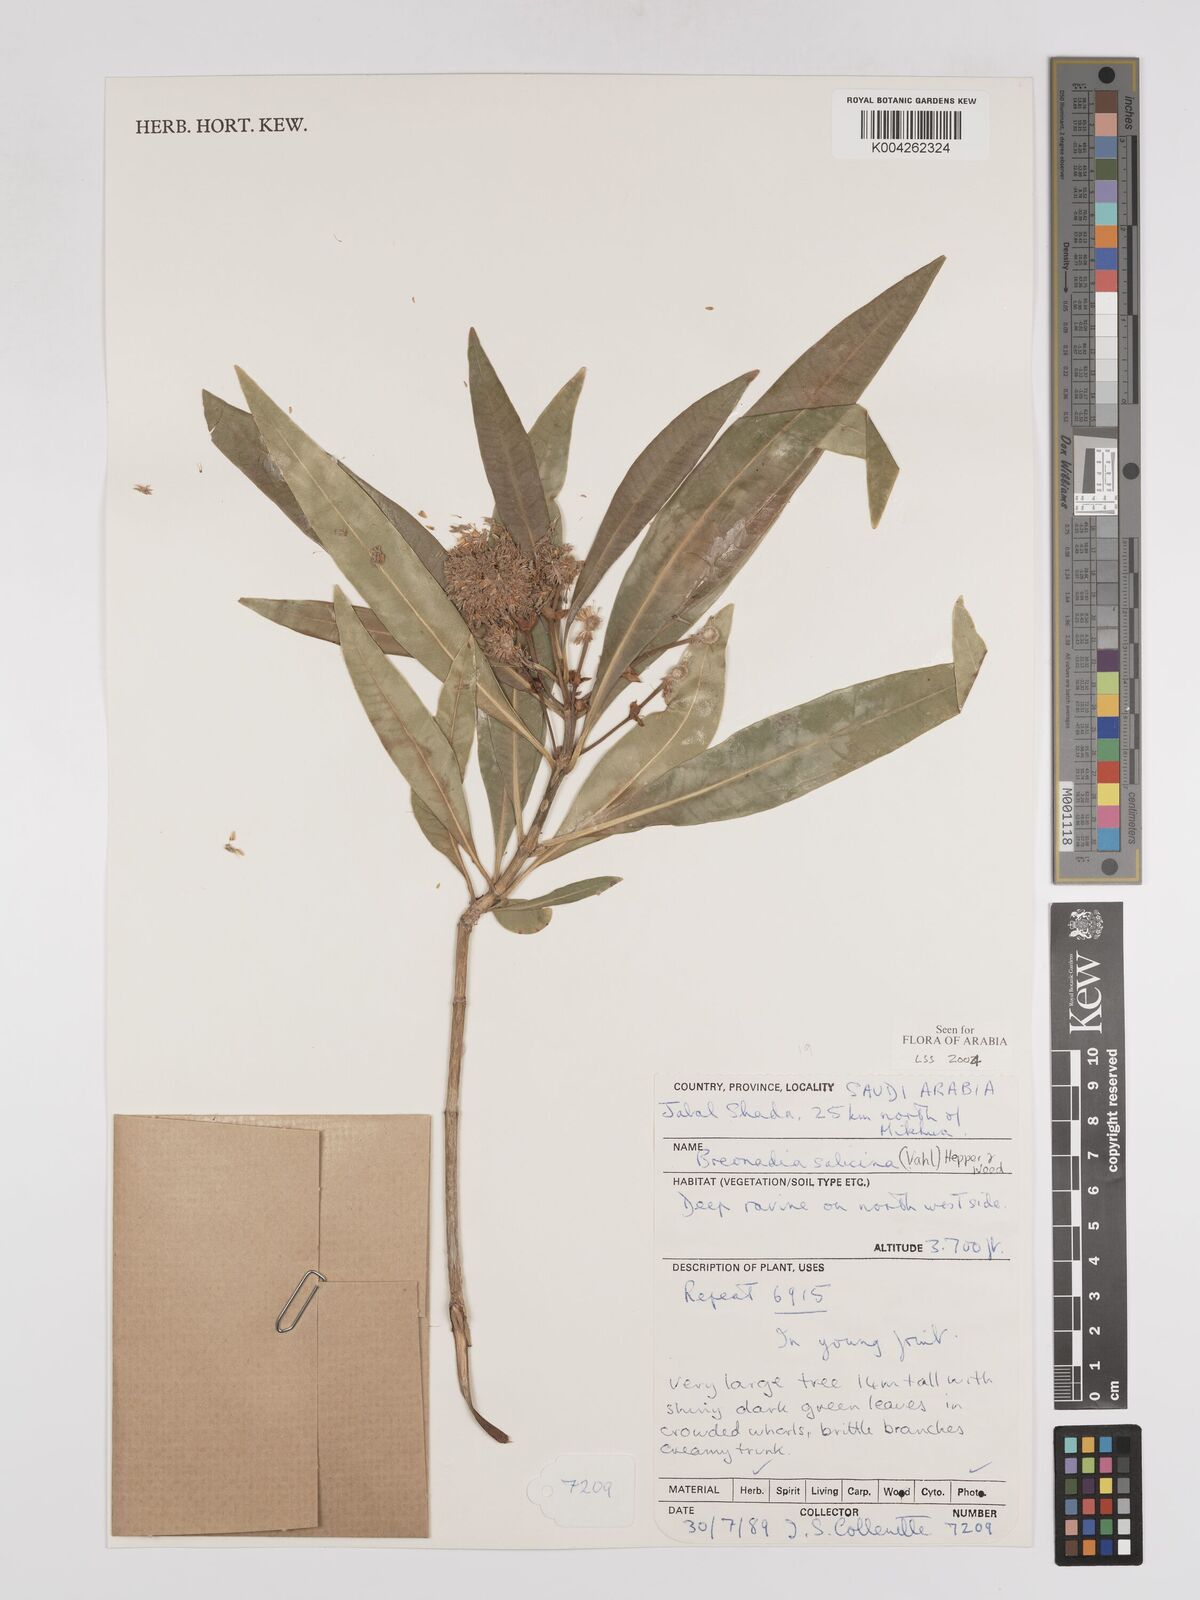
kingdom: Plantae
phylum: Tracheophyta
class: Magnoliopsida
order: Gentianales
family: Rubiaceae
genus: Breonadia
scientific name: Breonadia salicina
